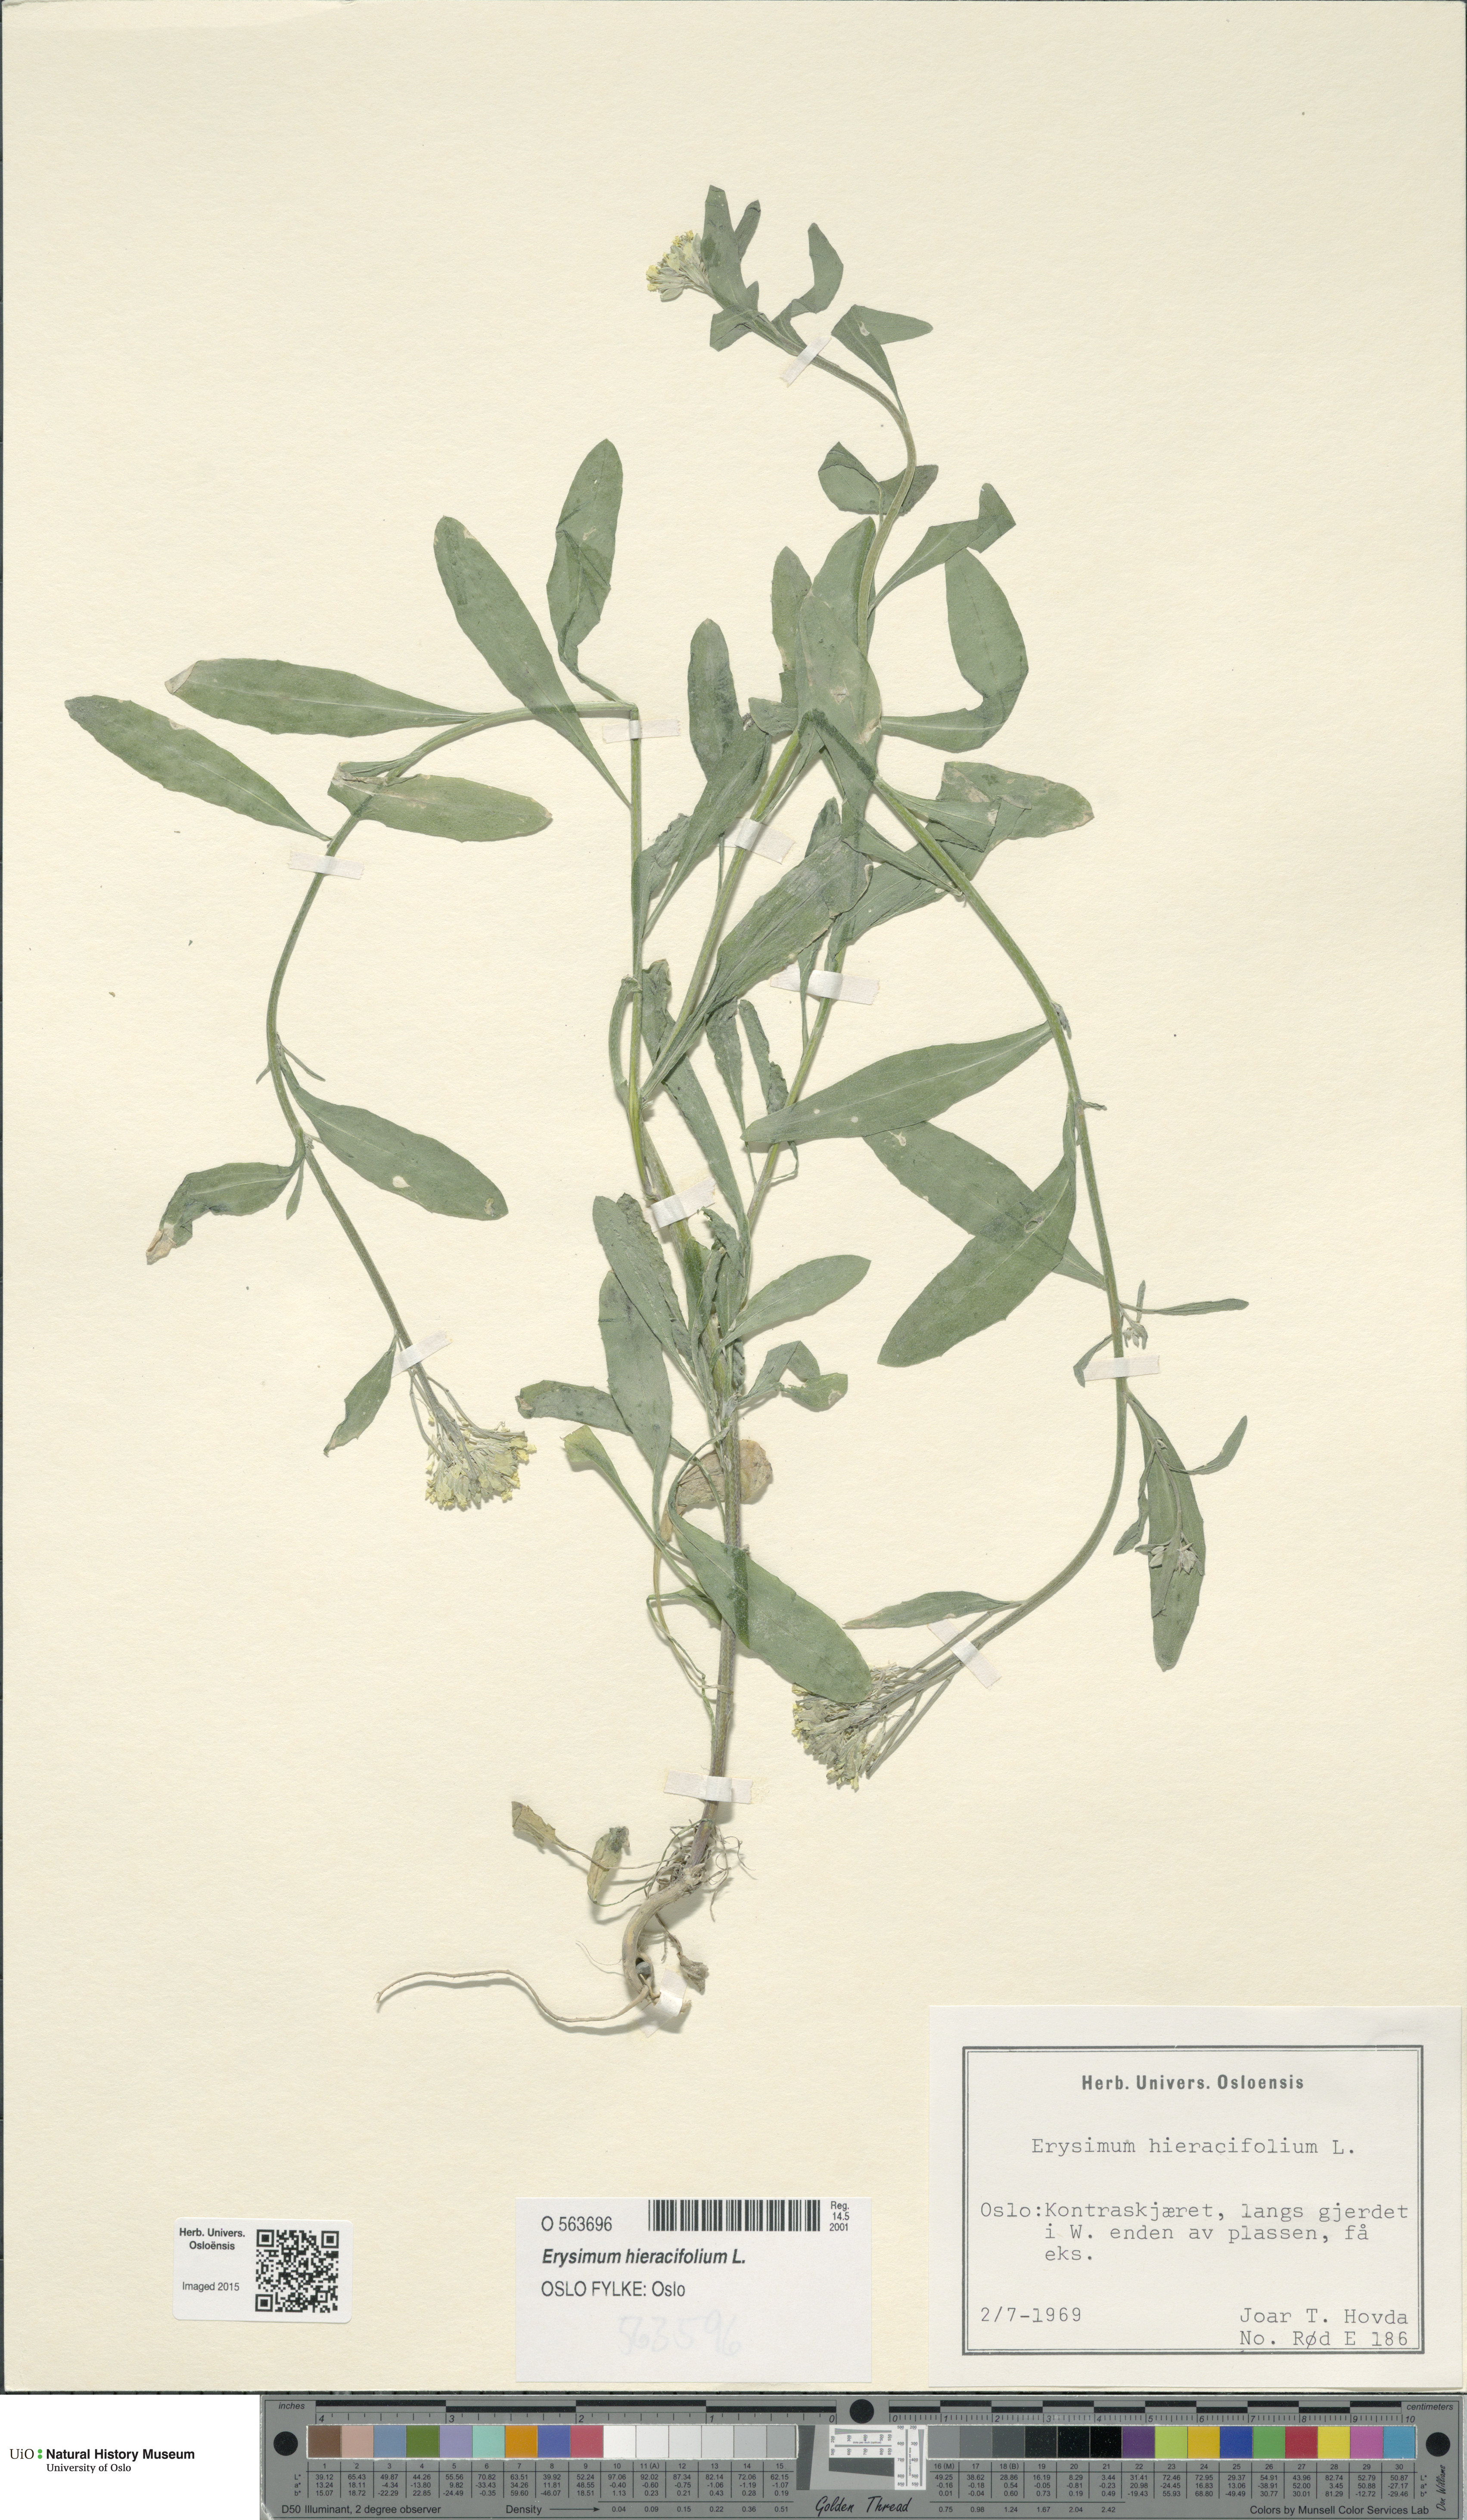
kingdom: Plantae
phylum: Tracheophyta
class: Magnoliopsida
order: Brassicales
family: Brassicaceae
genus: Erysimum
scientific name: Erysimum hieraciifolium
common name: European wallflower
